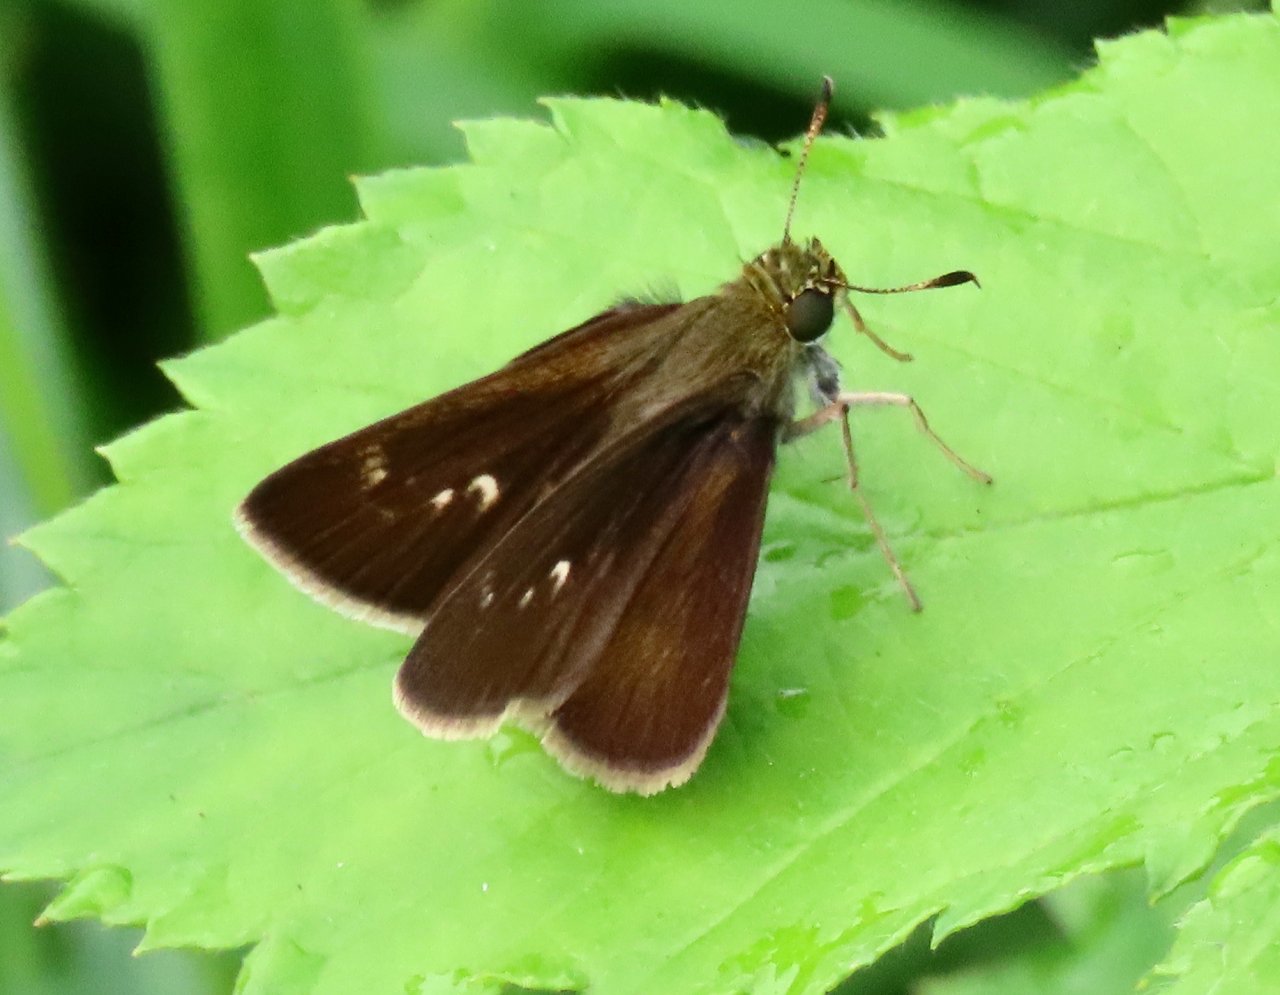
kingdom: Animalia
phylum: Arthropoda
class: Insecta
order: Lepidoptera
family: Hesperiidae
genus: Euphyes
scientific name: Euphyes vestris
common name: Dun Skipper
